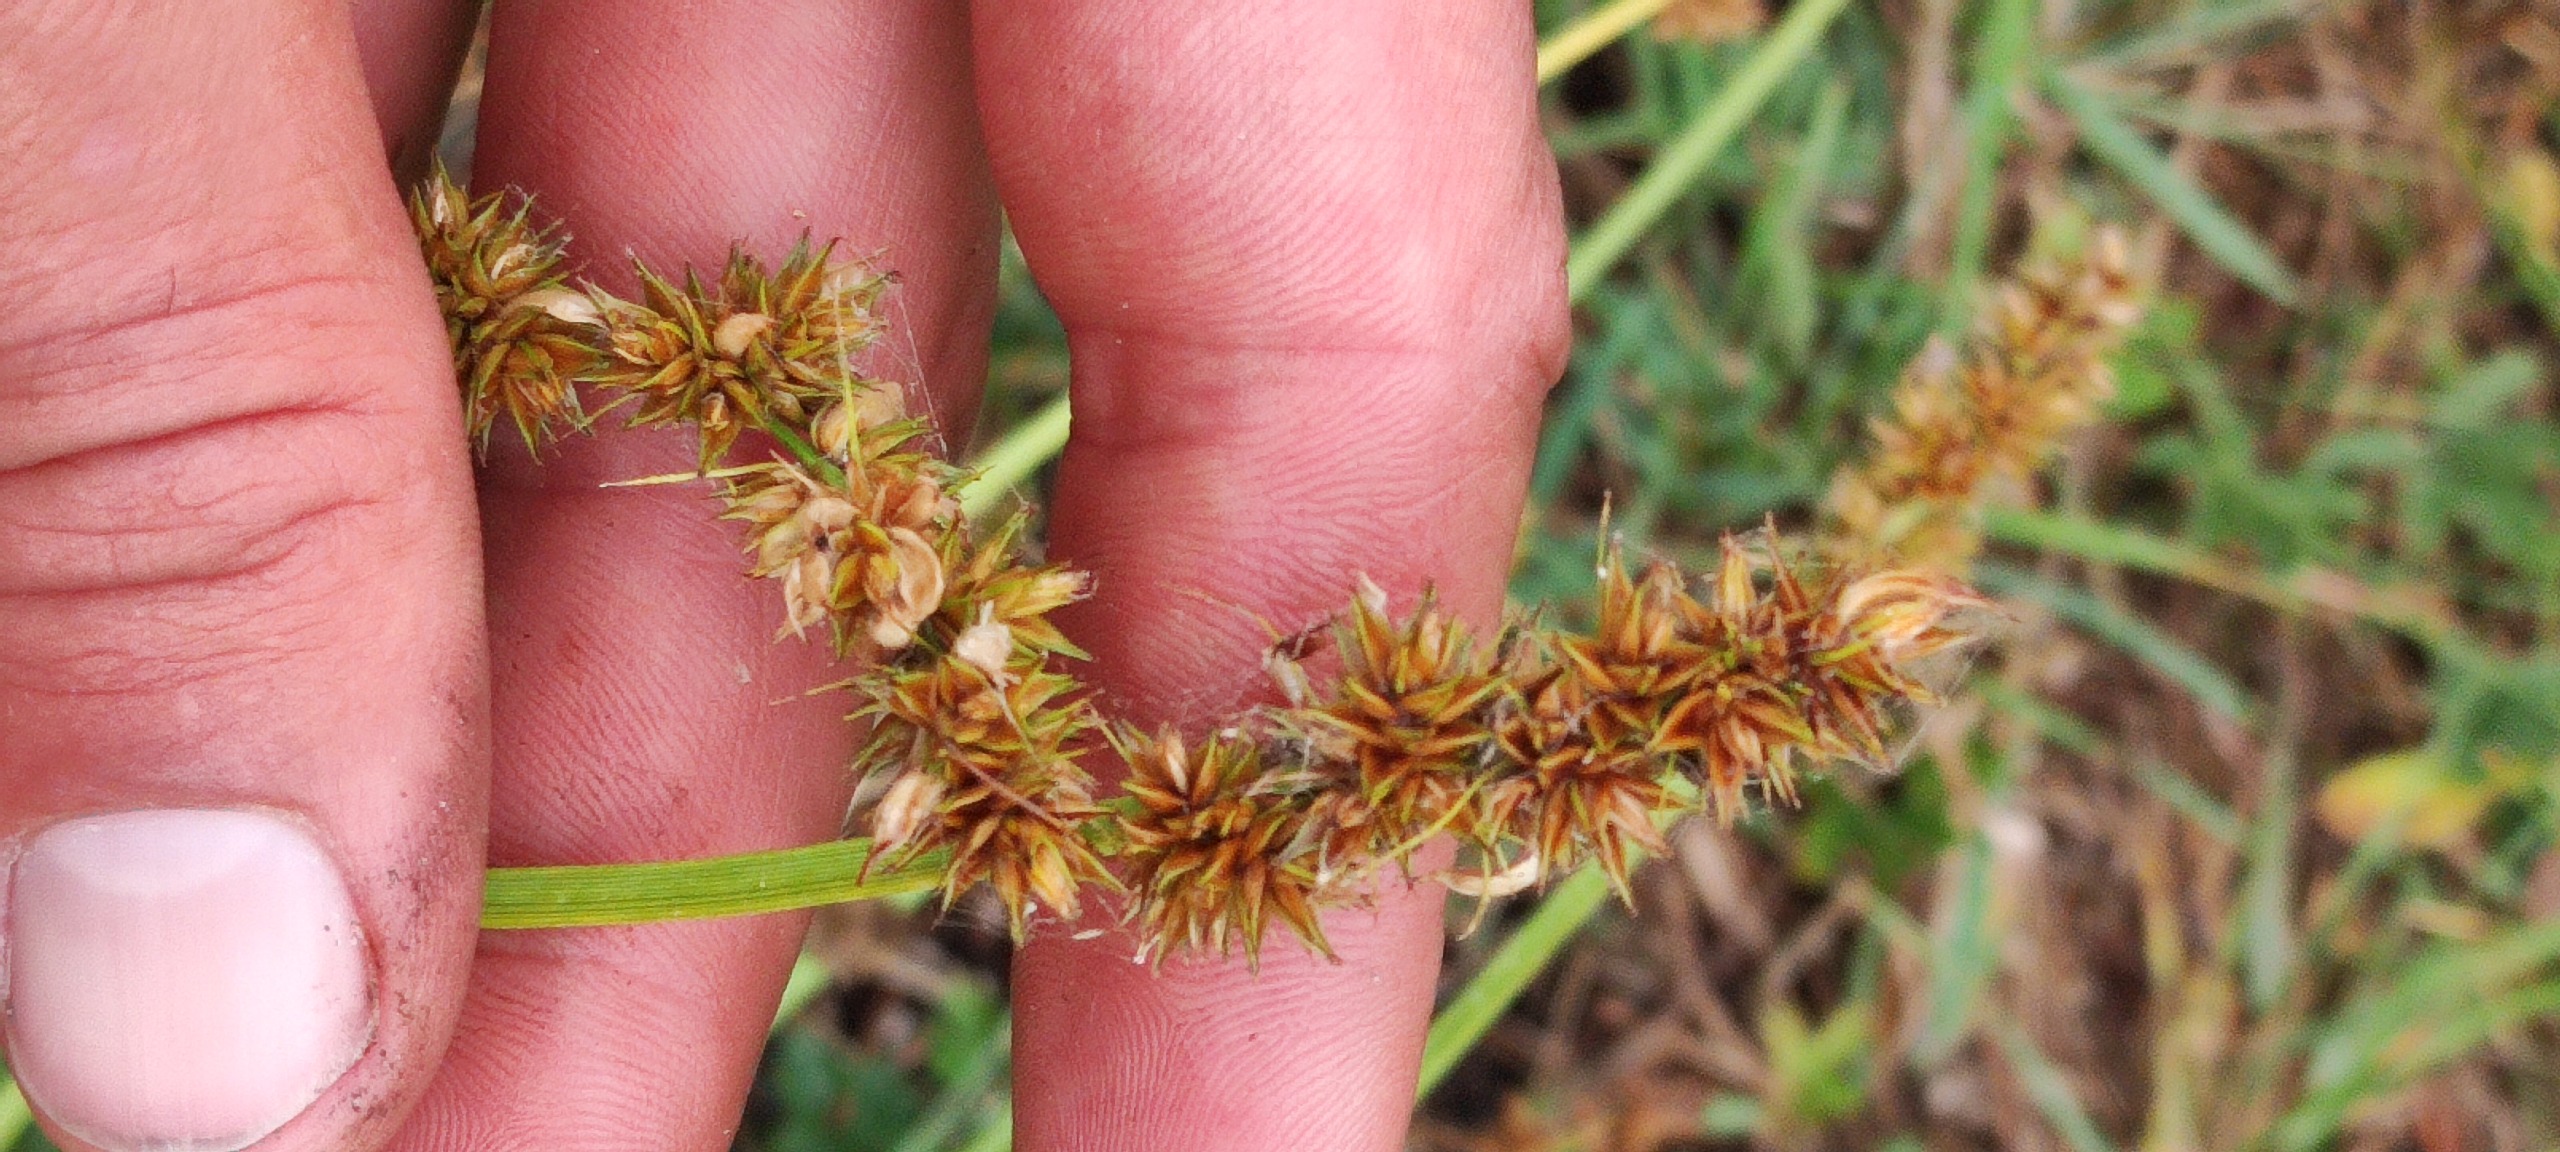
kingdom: Plantae
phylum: Tracheophyta
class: Liliopsida
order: Poales
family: Cyperaceae
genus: Carex
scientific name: Carex otrubae
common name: Sylt-star
